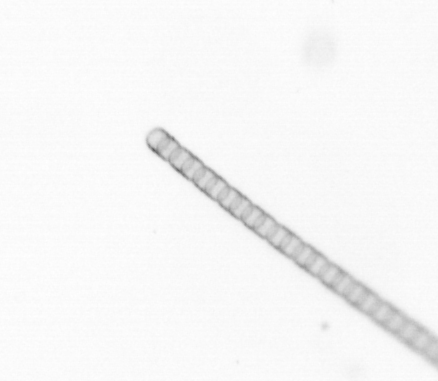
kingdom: Chromista
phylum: Ochrophyta
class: Bacillariophyceae
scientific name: Bacillariophyceae
